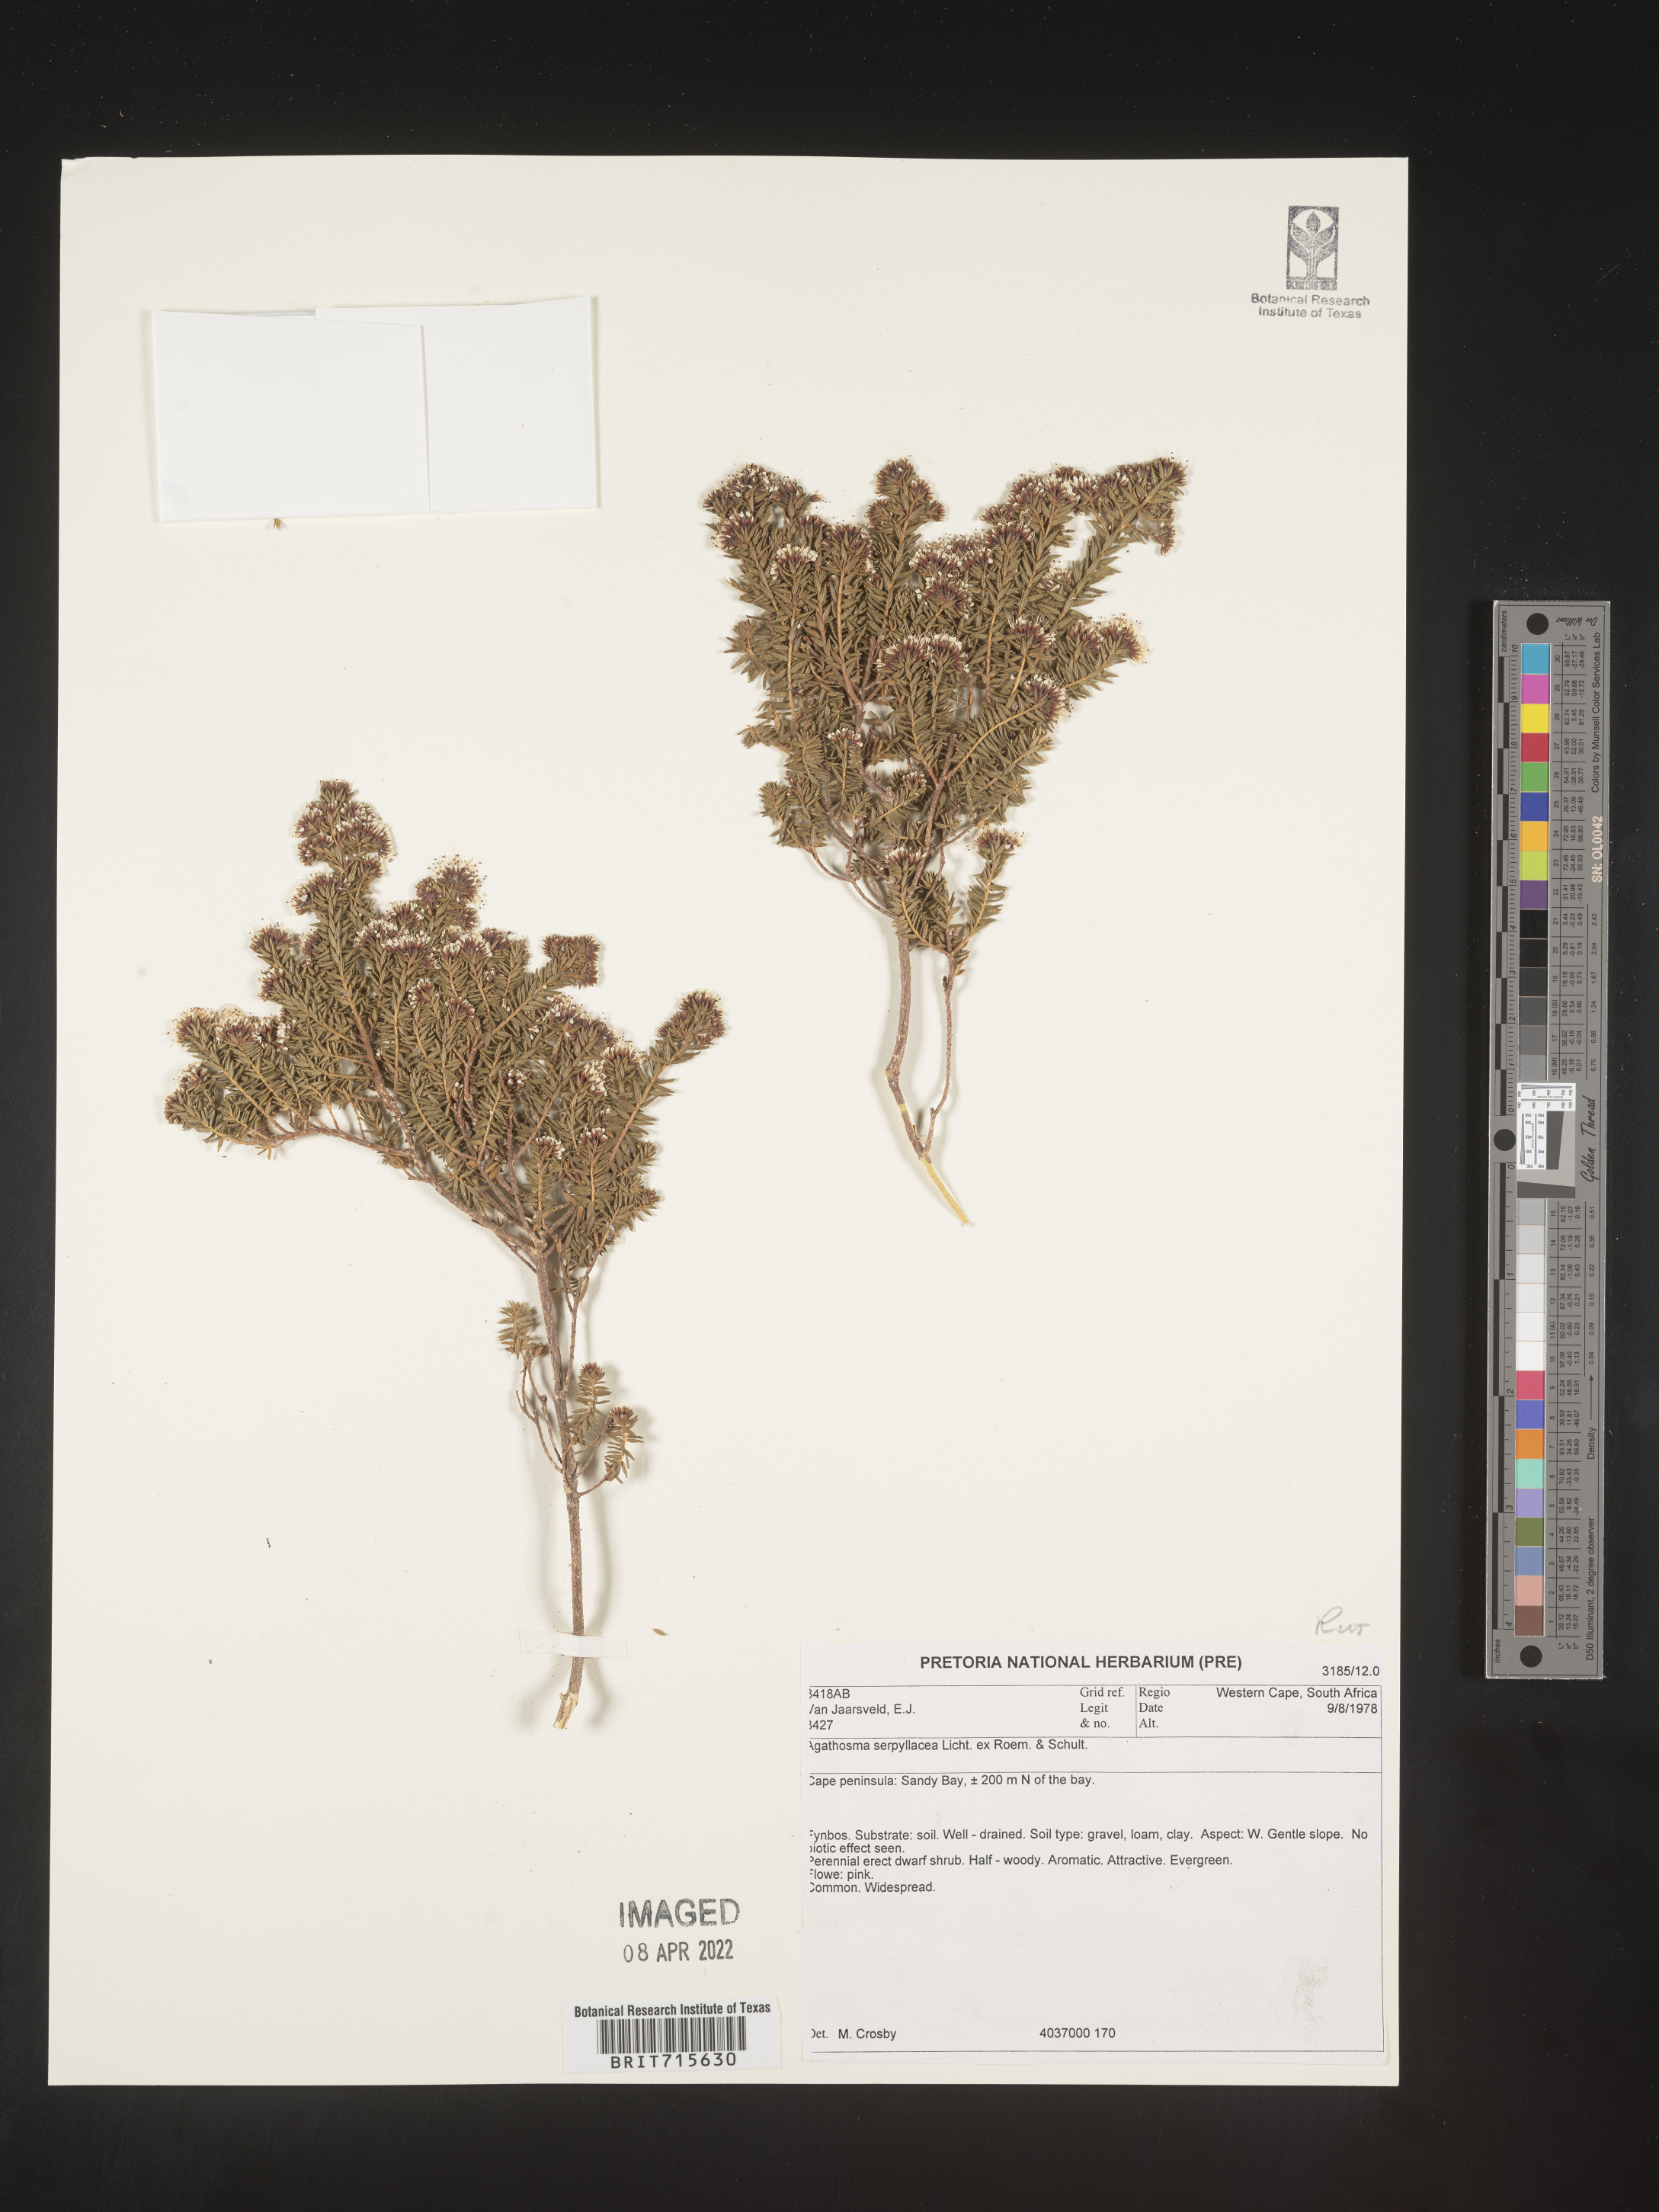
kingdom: Plantae
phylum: Tracheophyta
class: Magnoliopsida
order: Sapindales
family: Rutaceae
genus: Agathosma
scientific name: Agathosma
